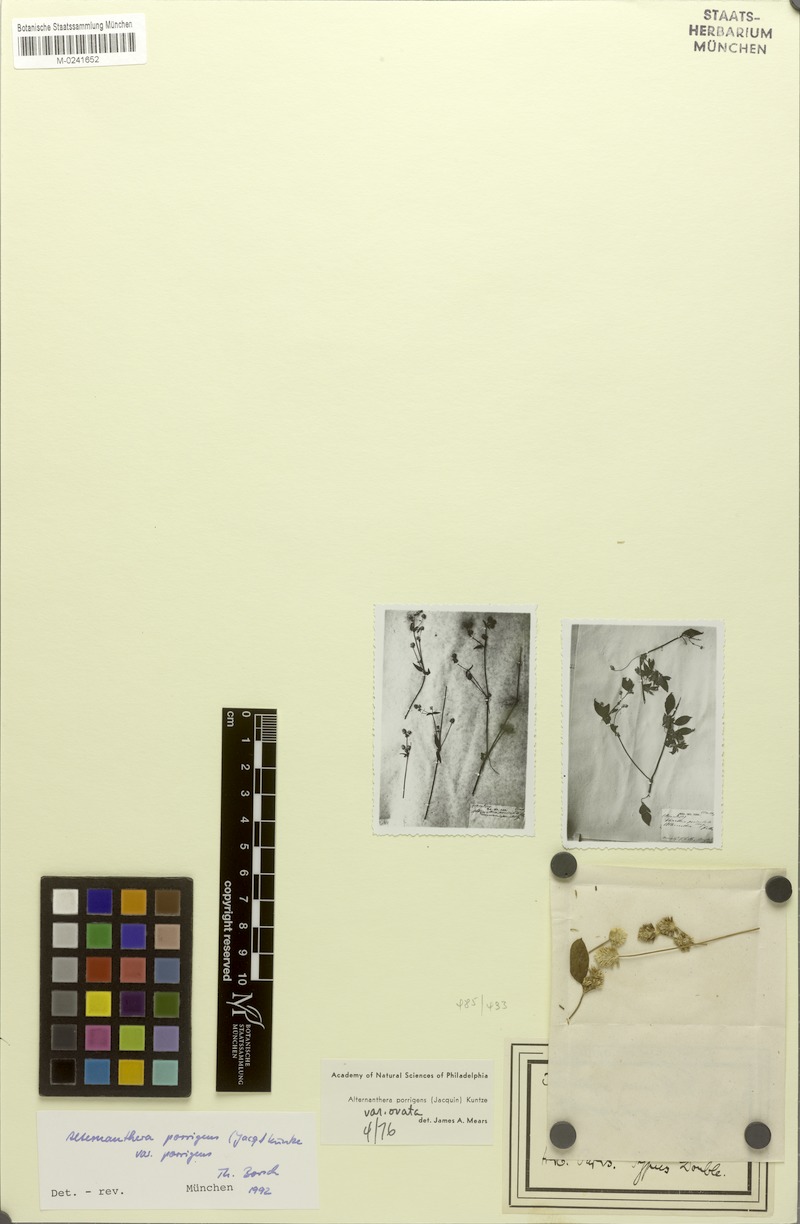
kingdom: Plantae
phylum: Tracheophyta
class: Magnoliopsida
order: Caryophyllales
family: Amaranthaceae
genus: Alternanthera
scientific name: Alternanthera porrigens
